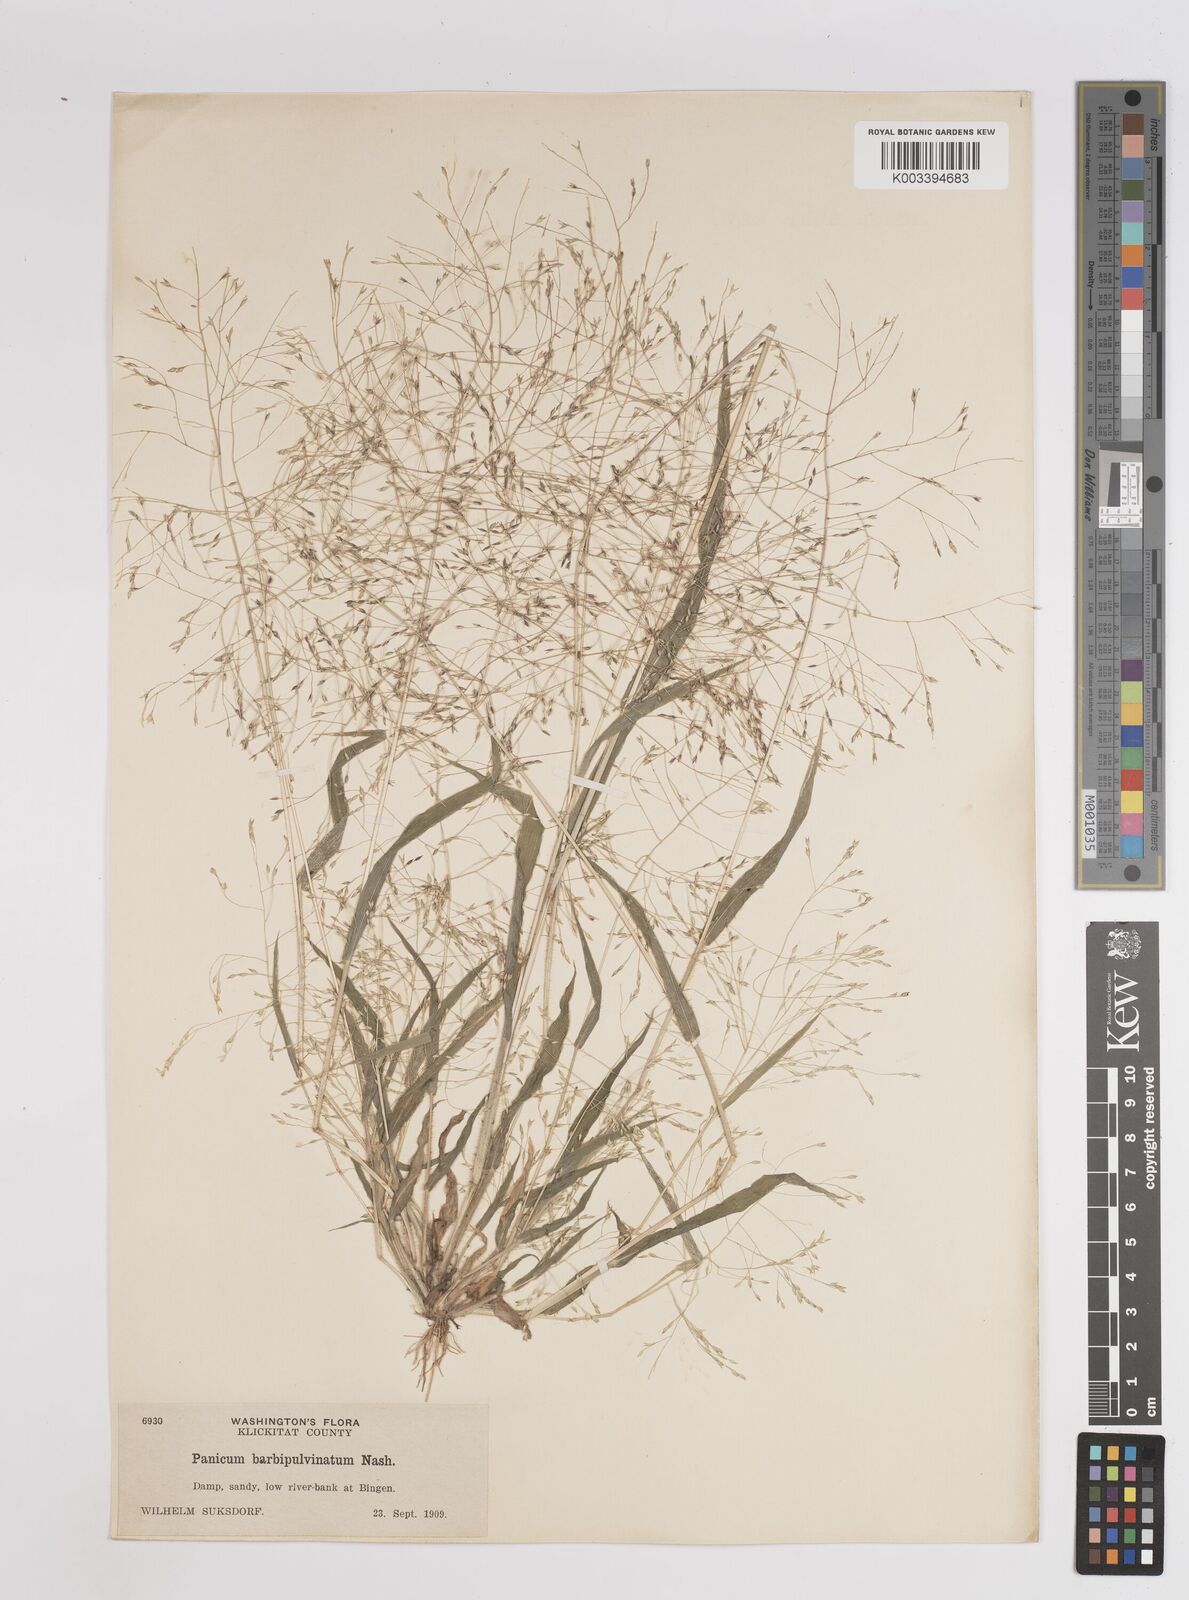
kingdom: Plantae
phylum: Tracheophyta
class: Liliopsida
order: Poales
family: Poaceae
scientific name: Poaceae
